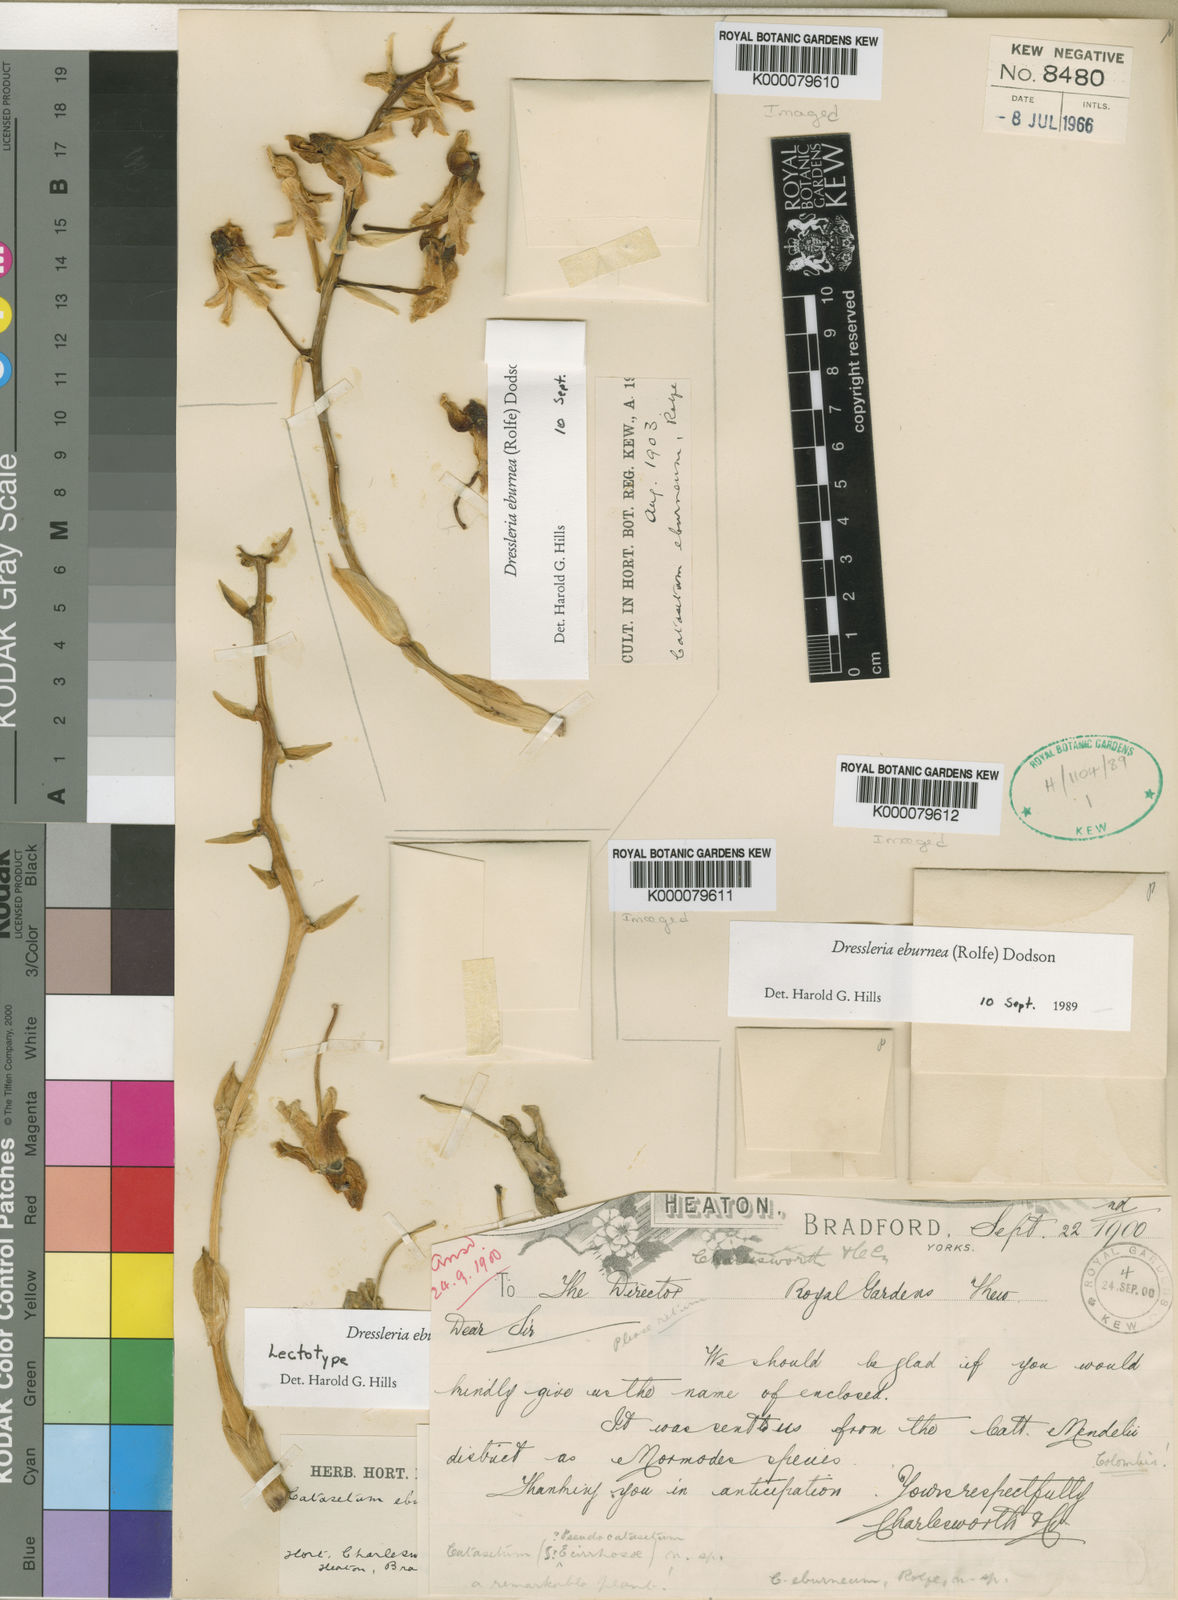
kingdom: Plantae
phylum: Tracheophyta
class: Liliopsida
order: Asparagales
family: Orchidaceae
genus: Dressleria
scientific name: Dressleria eburnea
